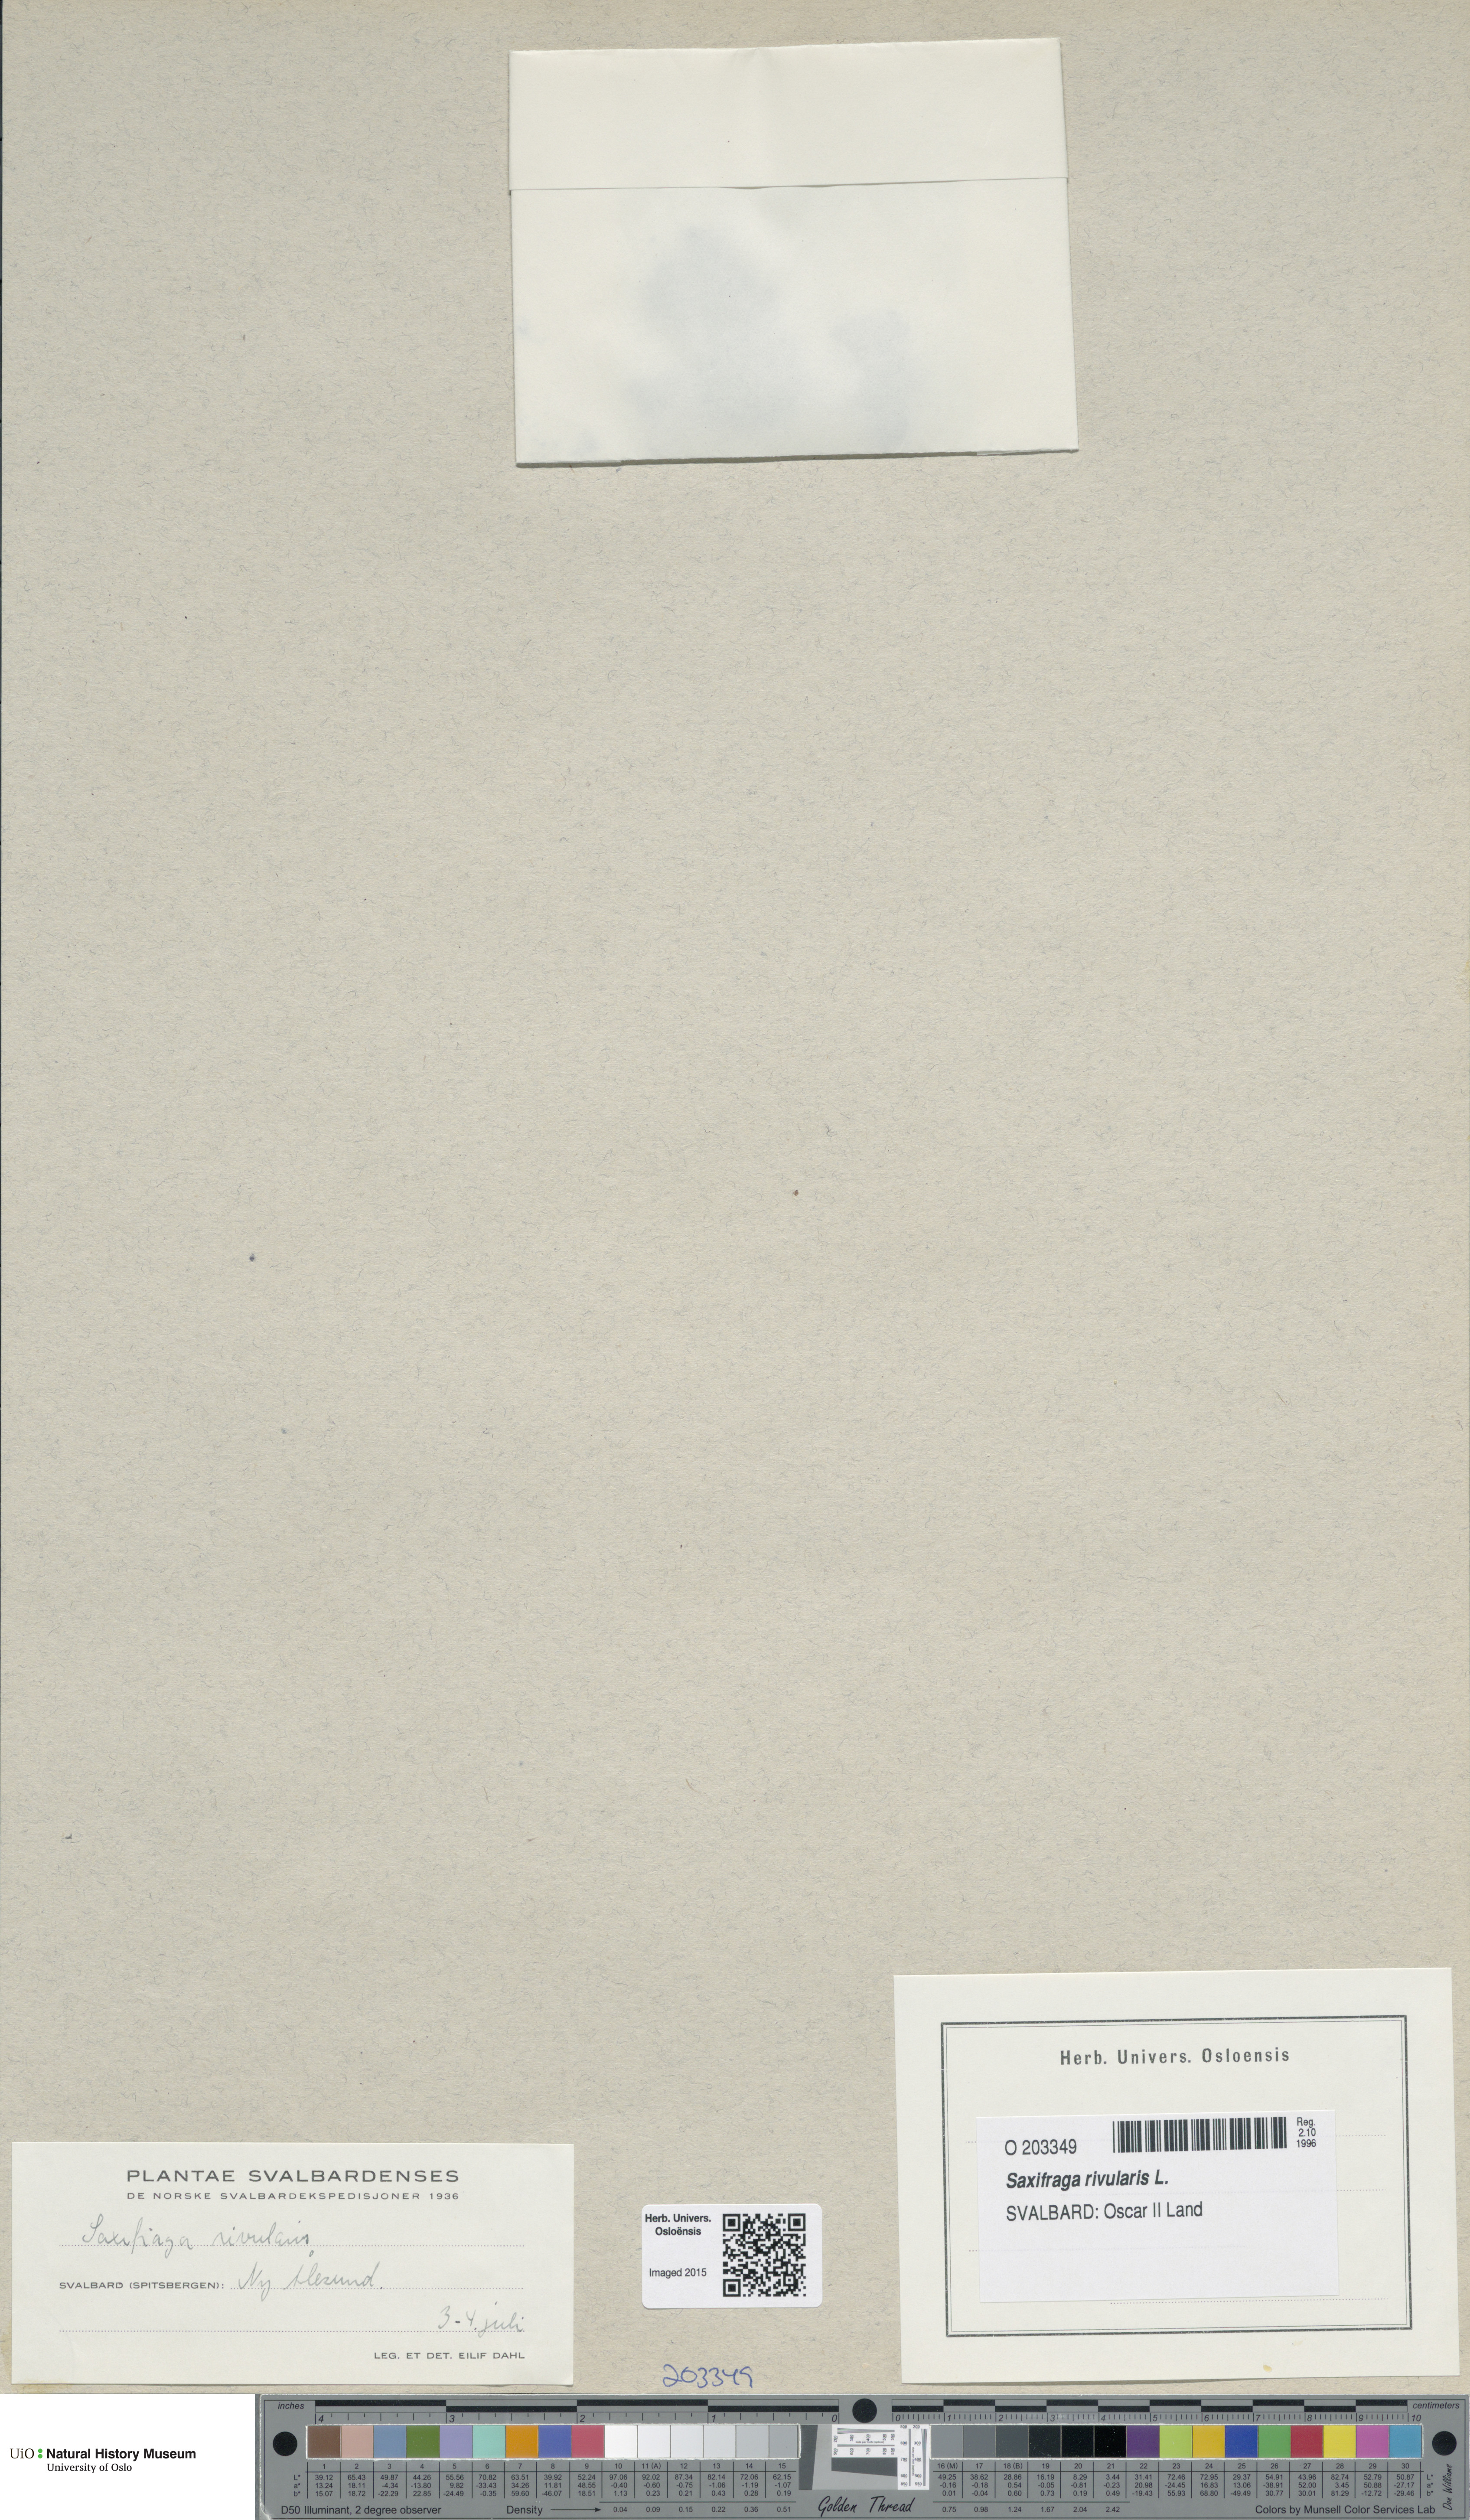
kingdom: Plantae
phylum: Tracheophyta
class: Magnoliopsida
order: Saxifragales
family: Saxifragaceae
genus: Saxifraga
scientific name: Saxifraga rivularis
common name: Highland saxifrage
